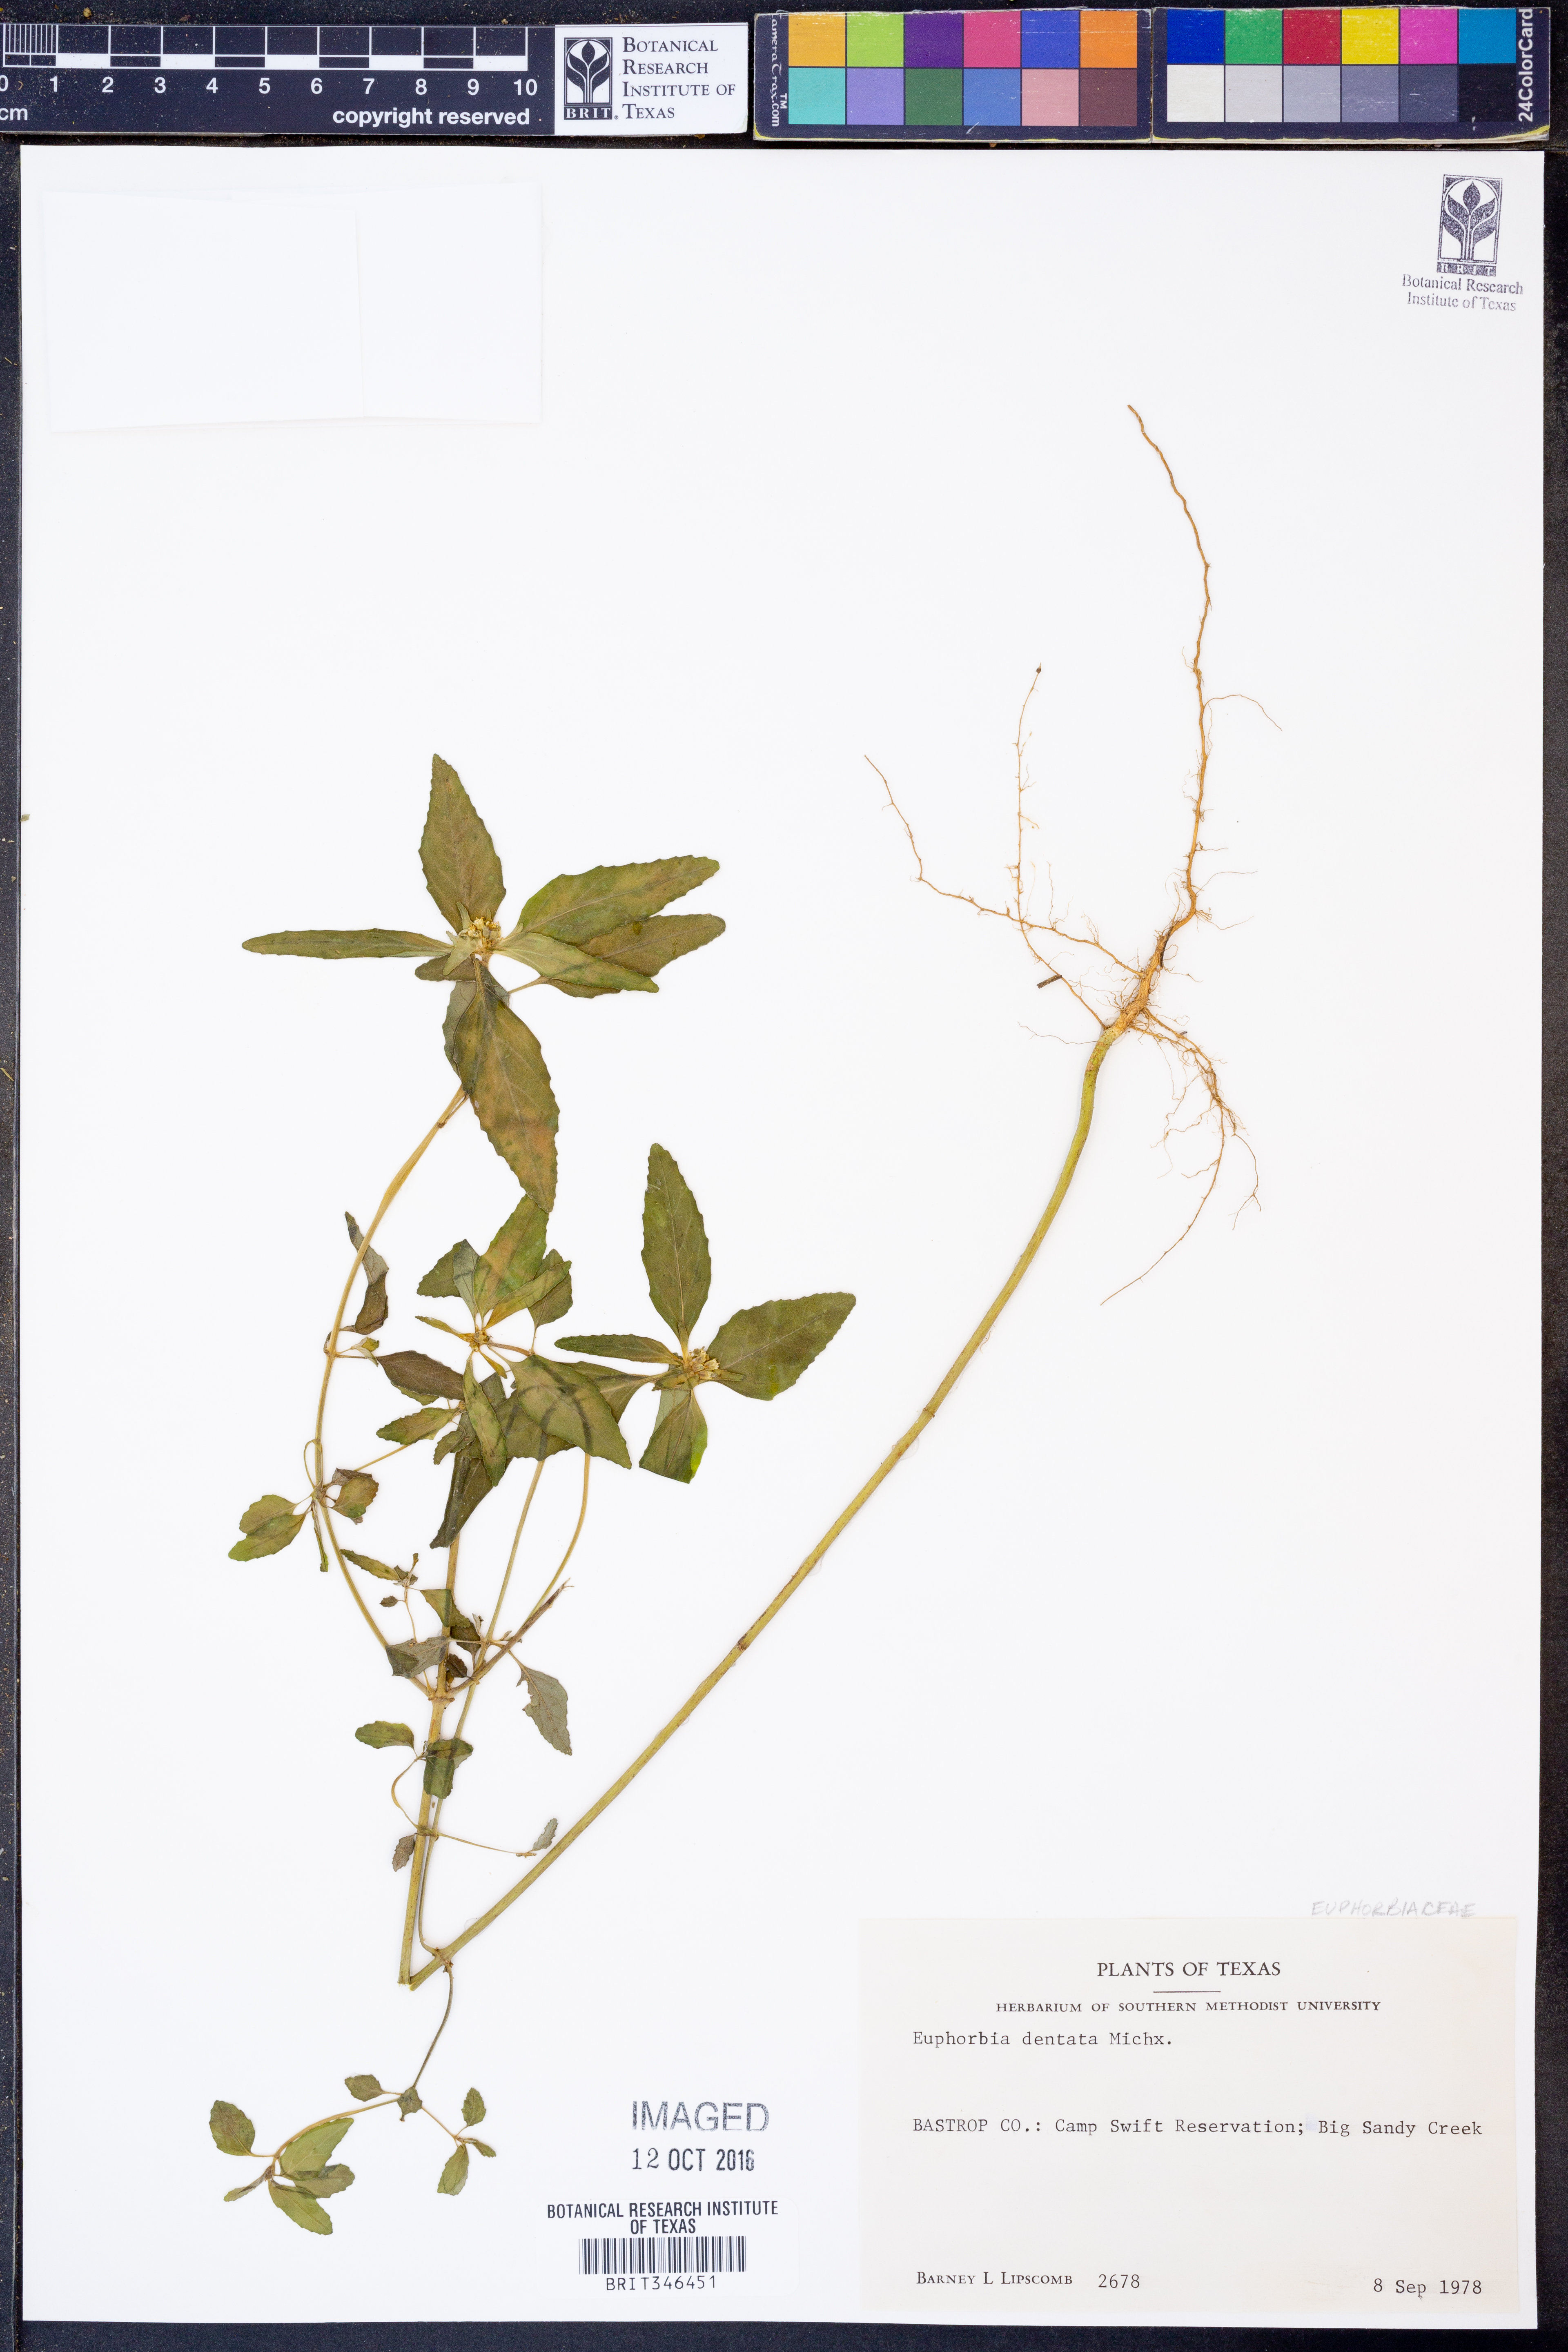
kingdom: Plantae
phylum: Tracheophyta
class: Magnoliopsida
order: Malpighiales
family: Euphorbiaceae
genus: Euphorbia
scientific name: Euphorbia dentata
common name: Dentate spurge
